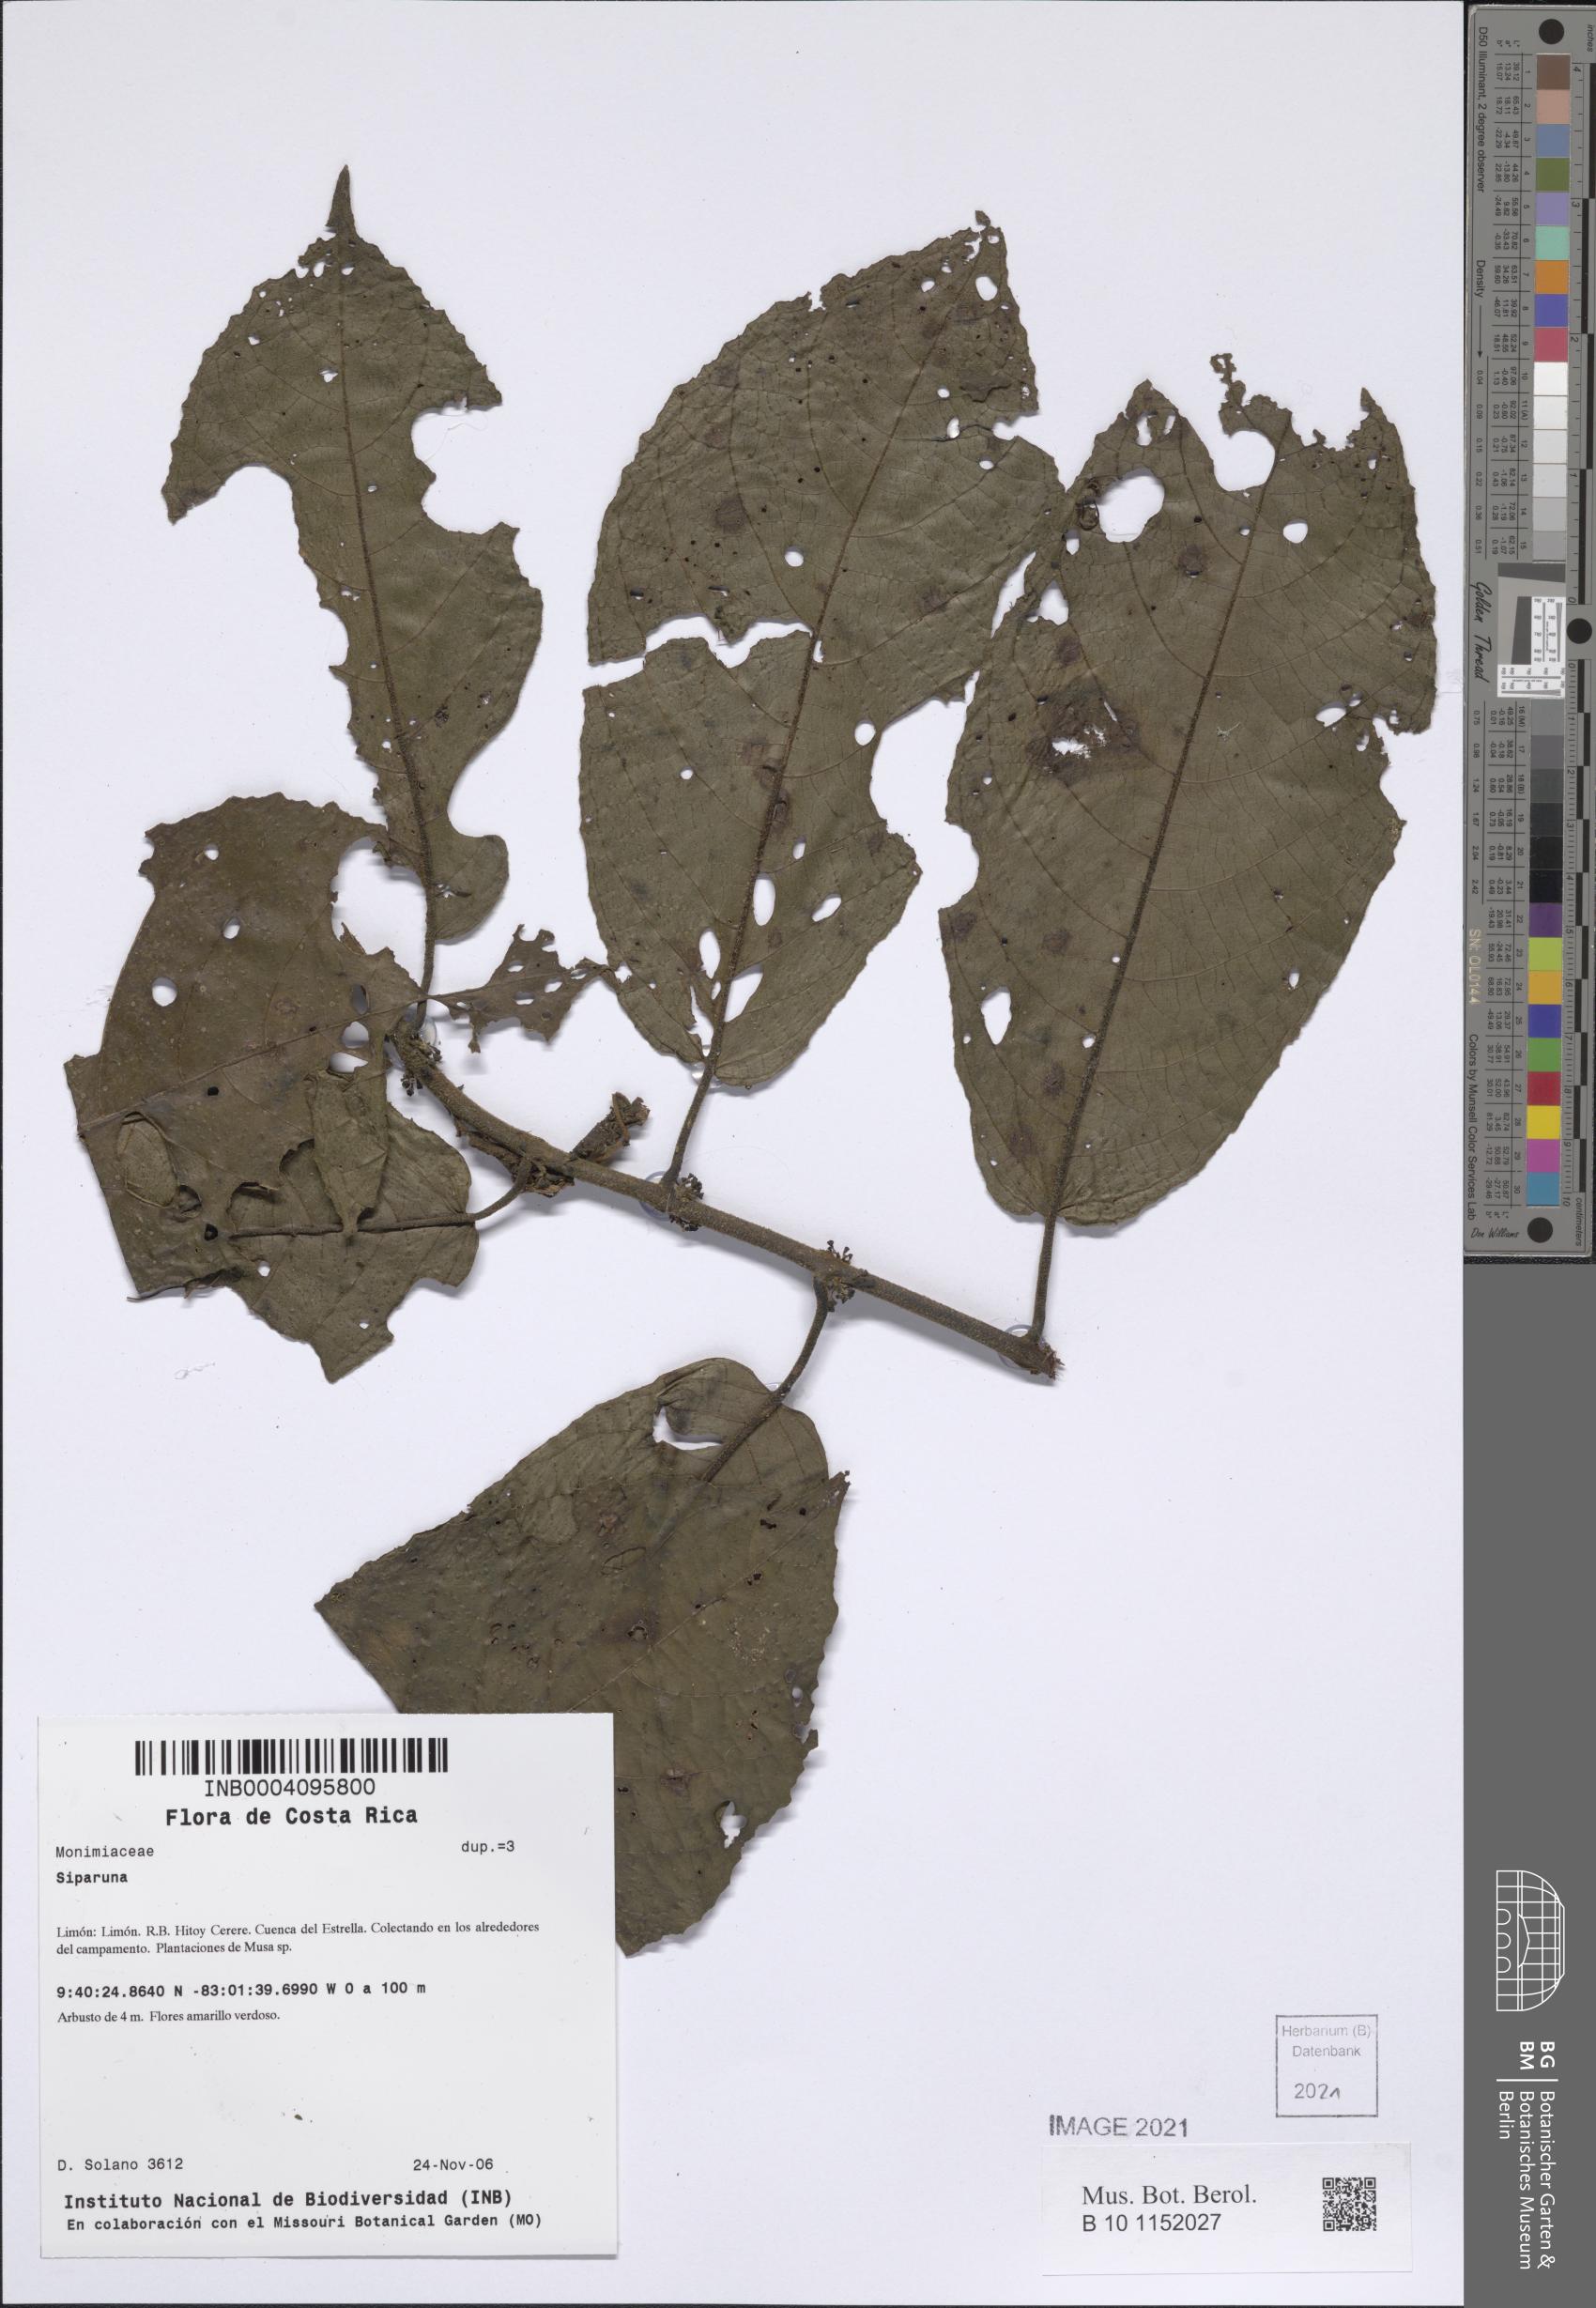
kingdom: Plantae
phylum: Tracheophyta
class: Magnoliopsida
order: Laurales
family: Siparunaceae
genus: Siparuna
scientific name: Siparuna
